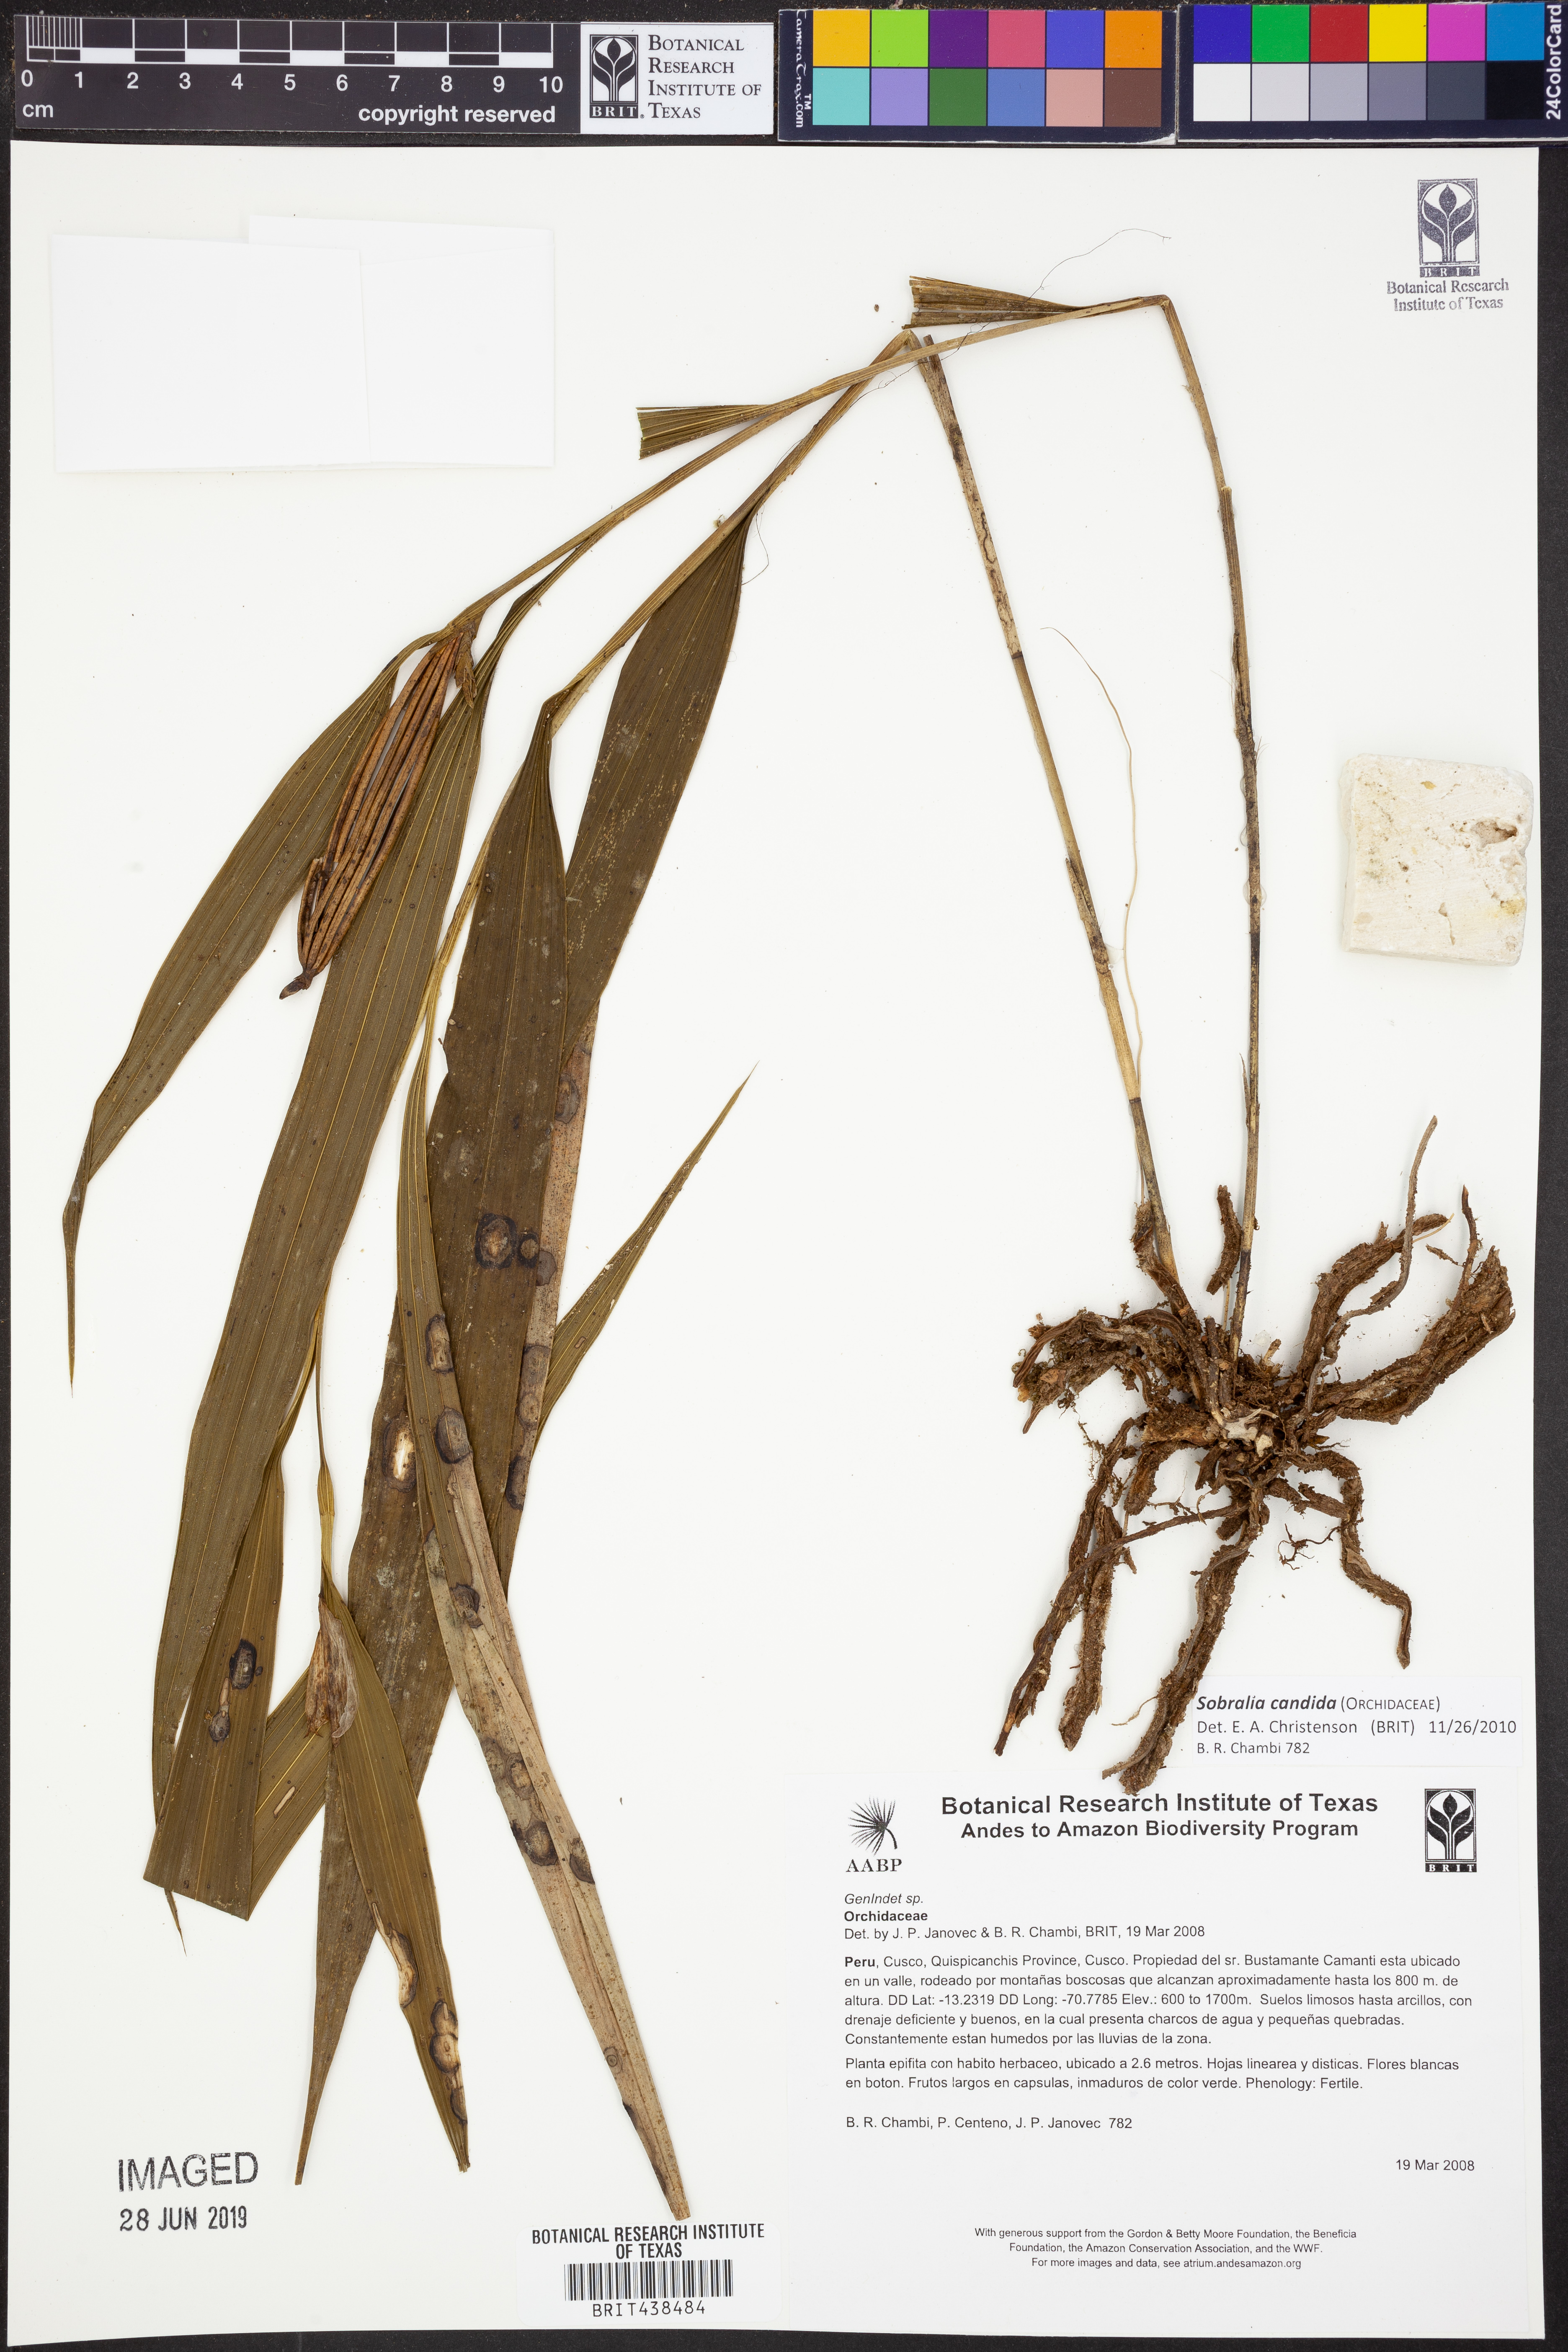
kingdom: Plantae
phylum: Tracheophyta
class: Liliopsida
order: Asparagales
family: Orchidaceae
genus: Sobralia
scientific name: Sobralia candida
